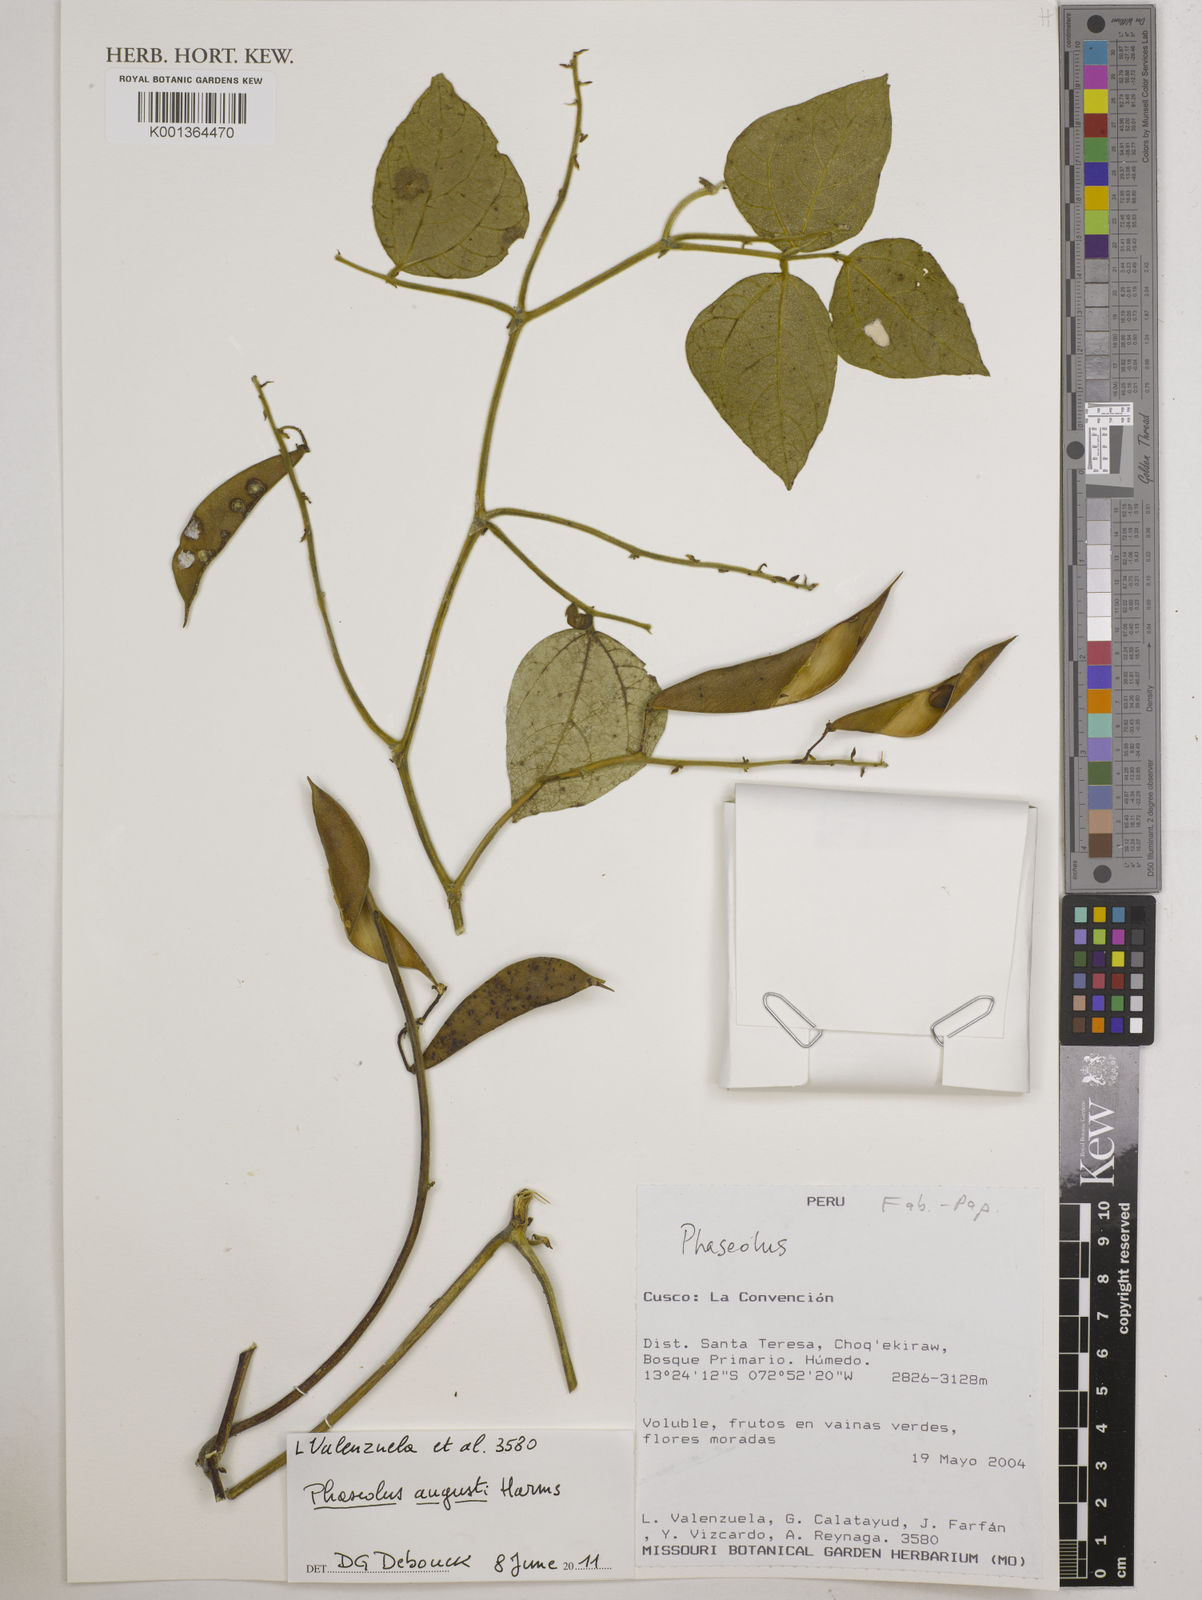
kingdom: Plantae
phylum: Tracheophyta
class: Magnoliopsida
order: Fabales
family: Fabaceae
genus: Phaseolus
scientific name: Phaseolus augusti
